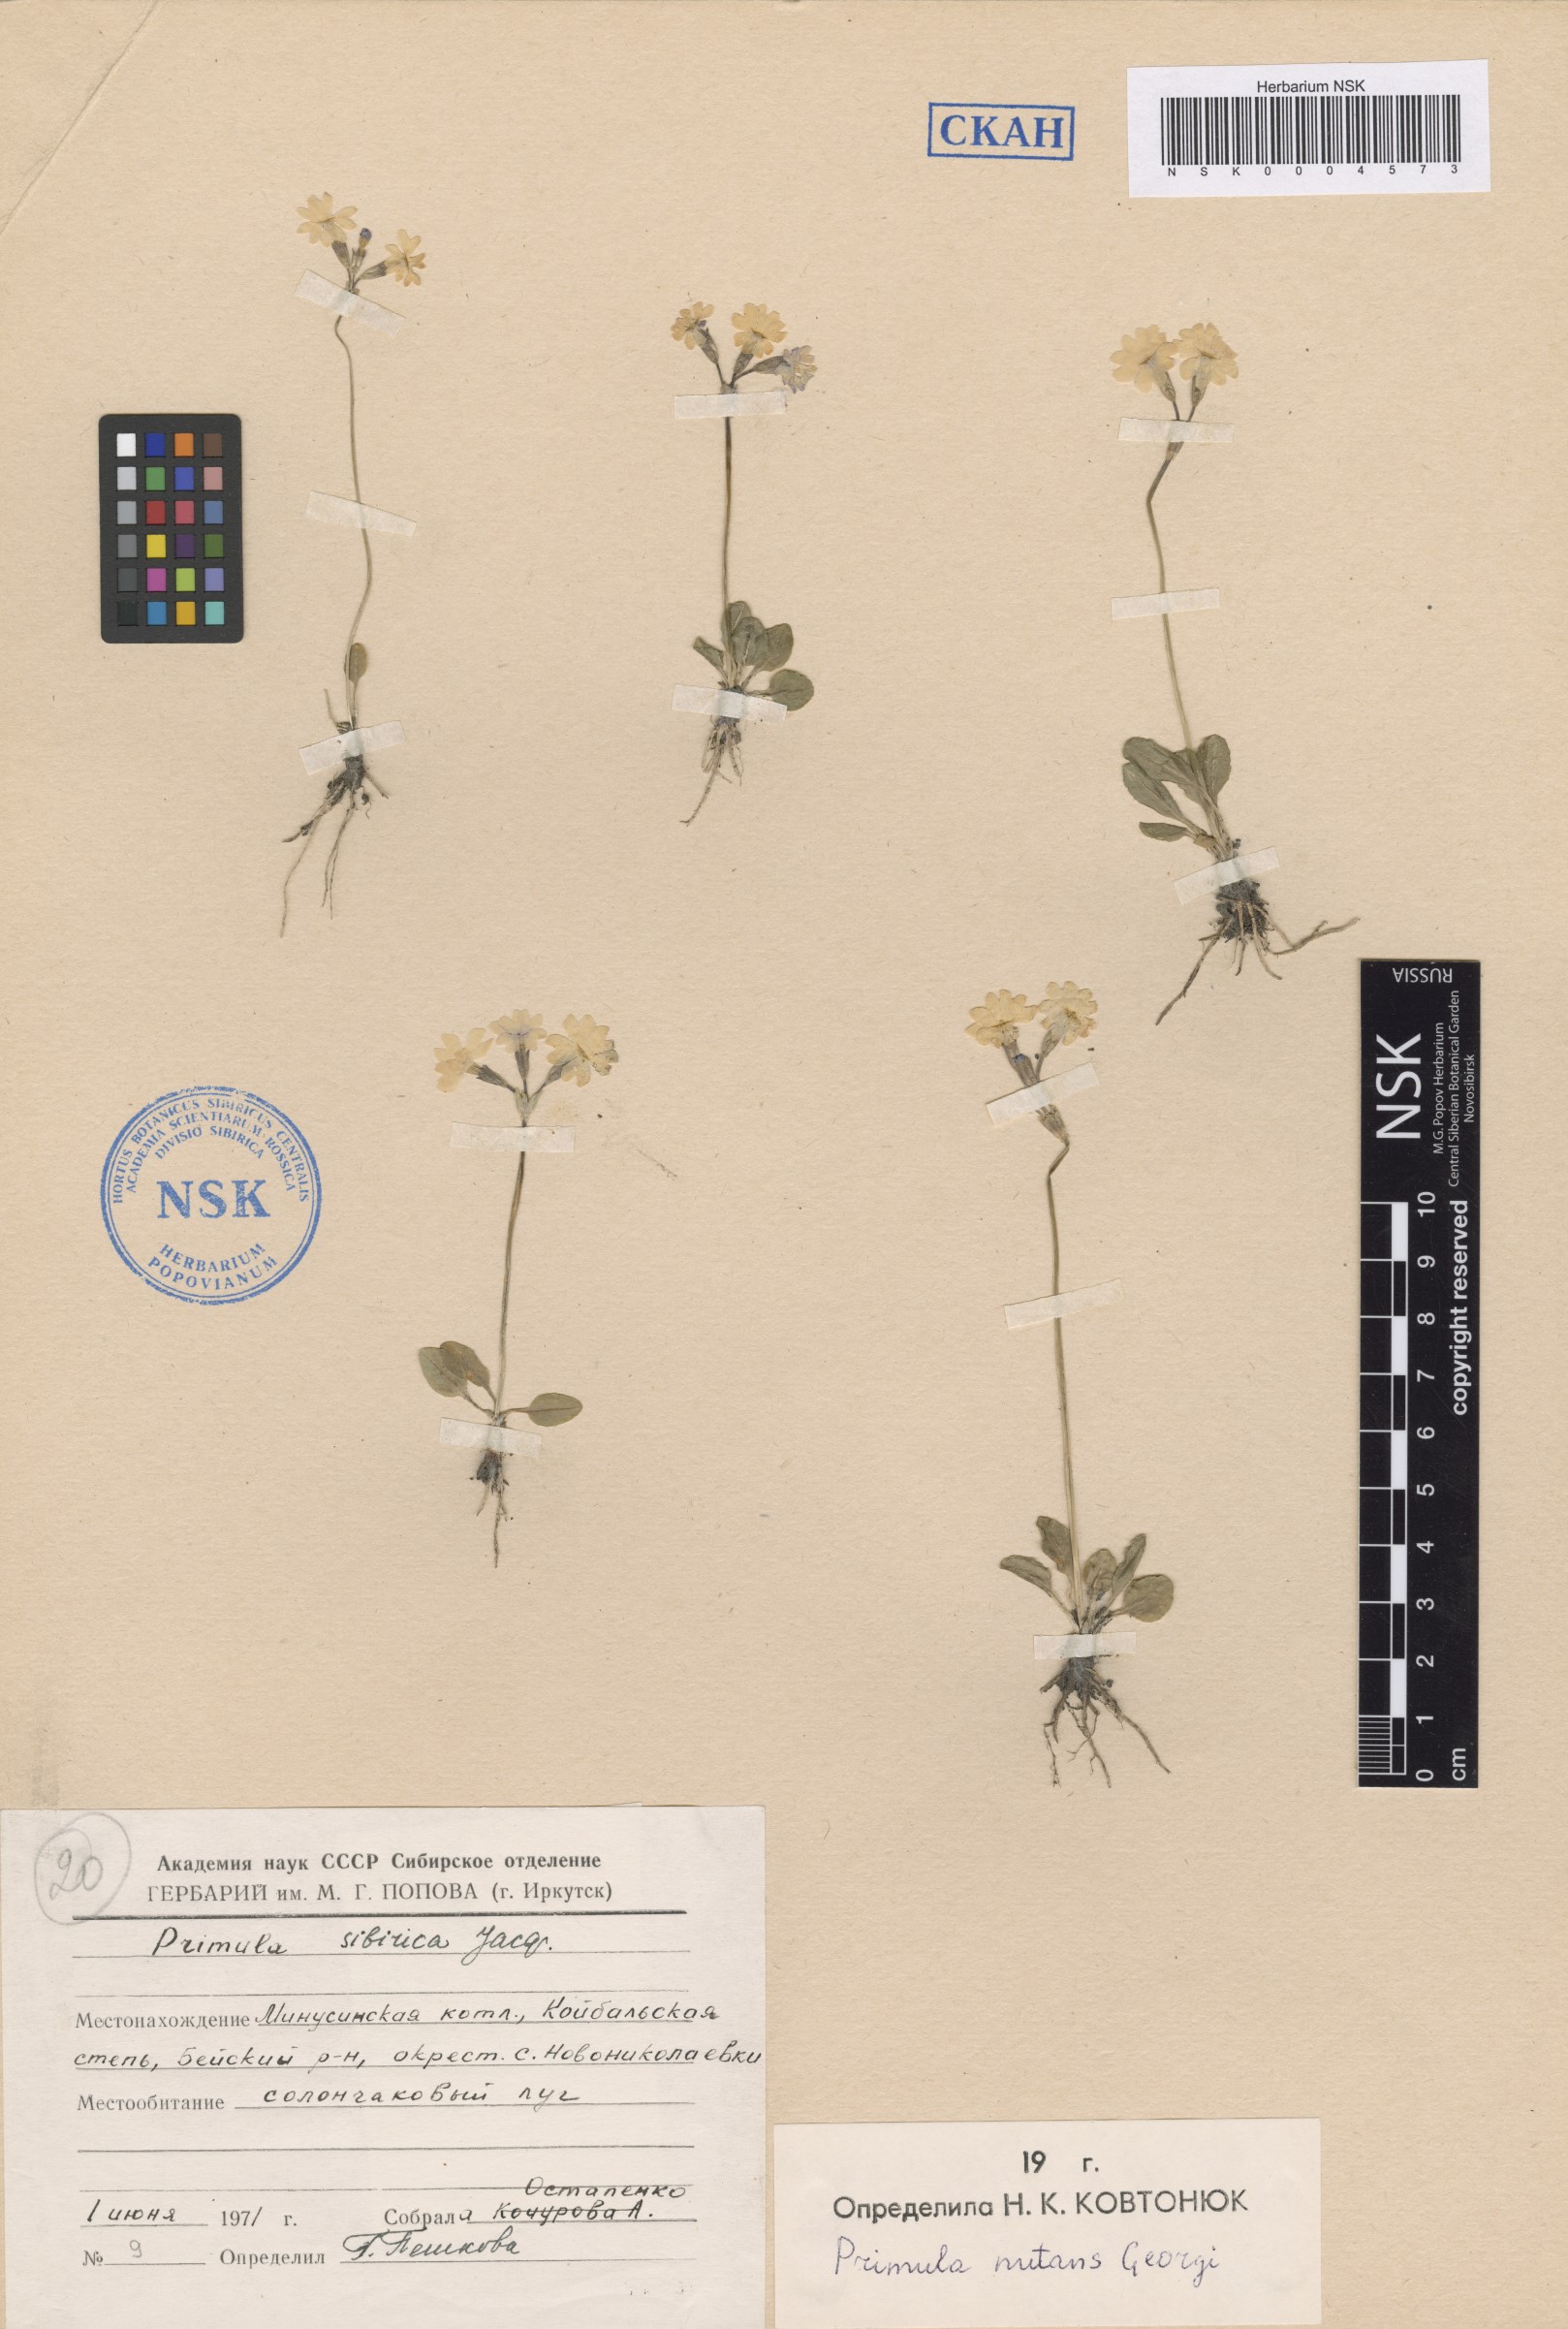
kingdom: Plantae
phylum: Tracheophyta
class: Magnoliopsida
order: Ericales
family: Primulaceae
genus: Primula
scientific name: Primula nutans
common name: Siberian primrose
